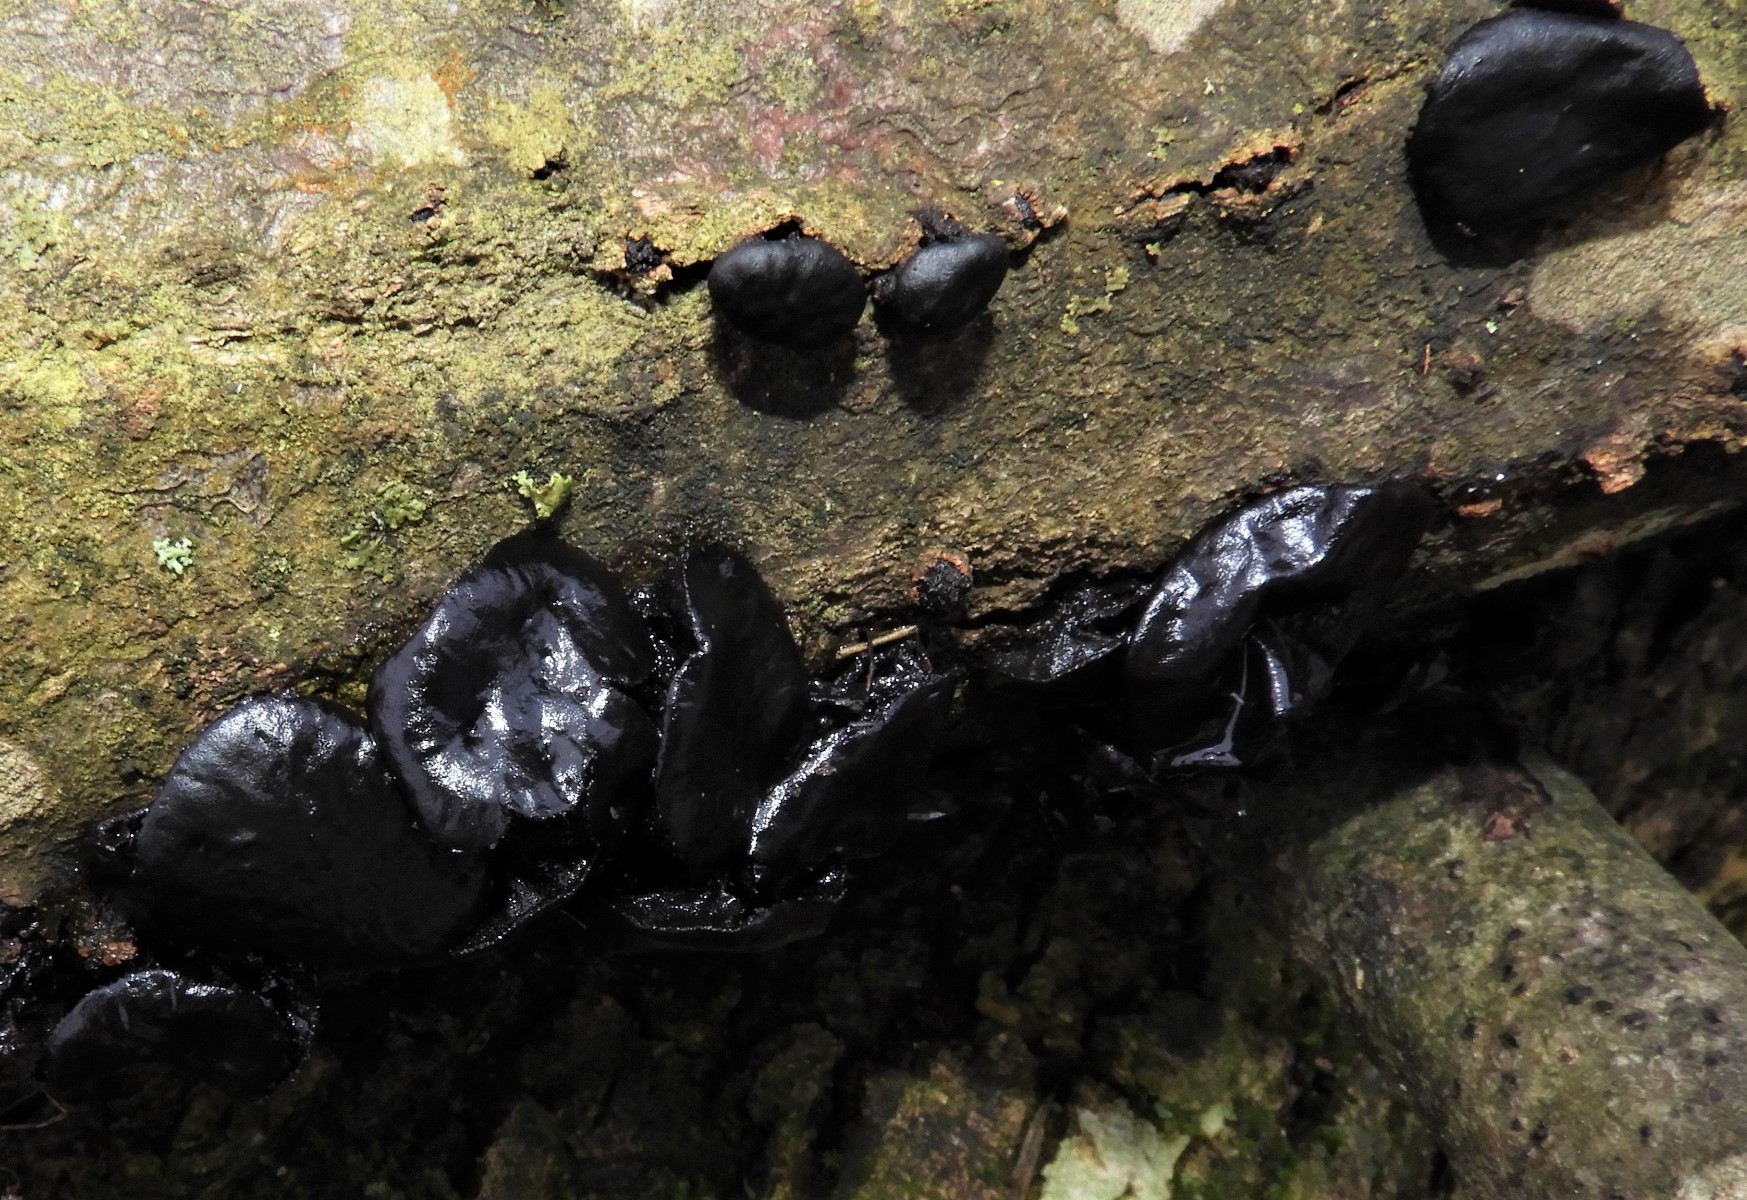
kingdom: Fungi
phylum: Ascomycota
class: Leotiomycetes
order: Phacidiales
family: Phacidiaceae
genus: Bulgaria
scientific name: Bulgaria inquinans
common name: afsmittende topsvamp
